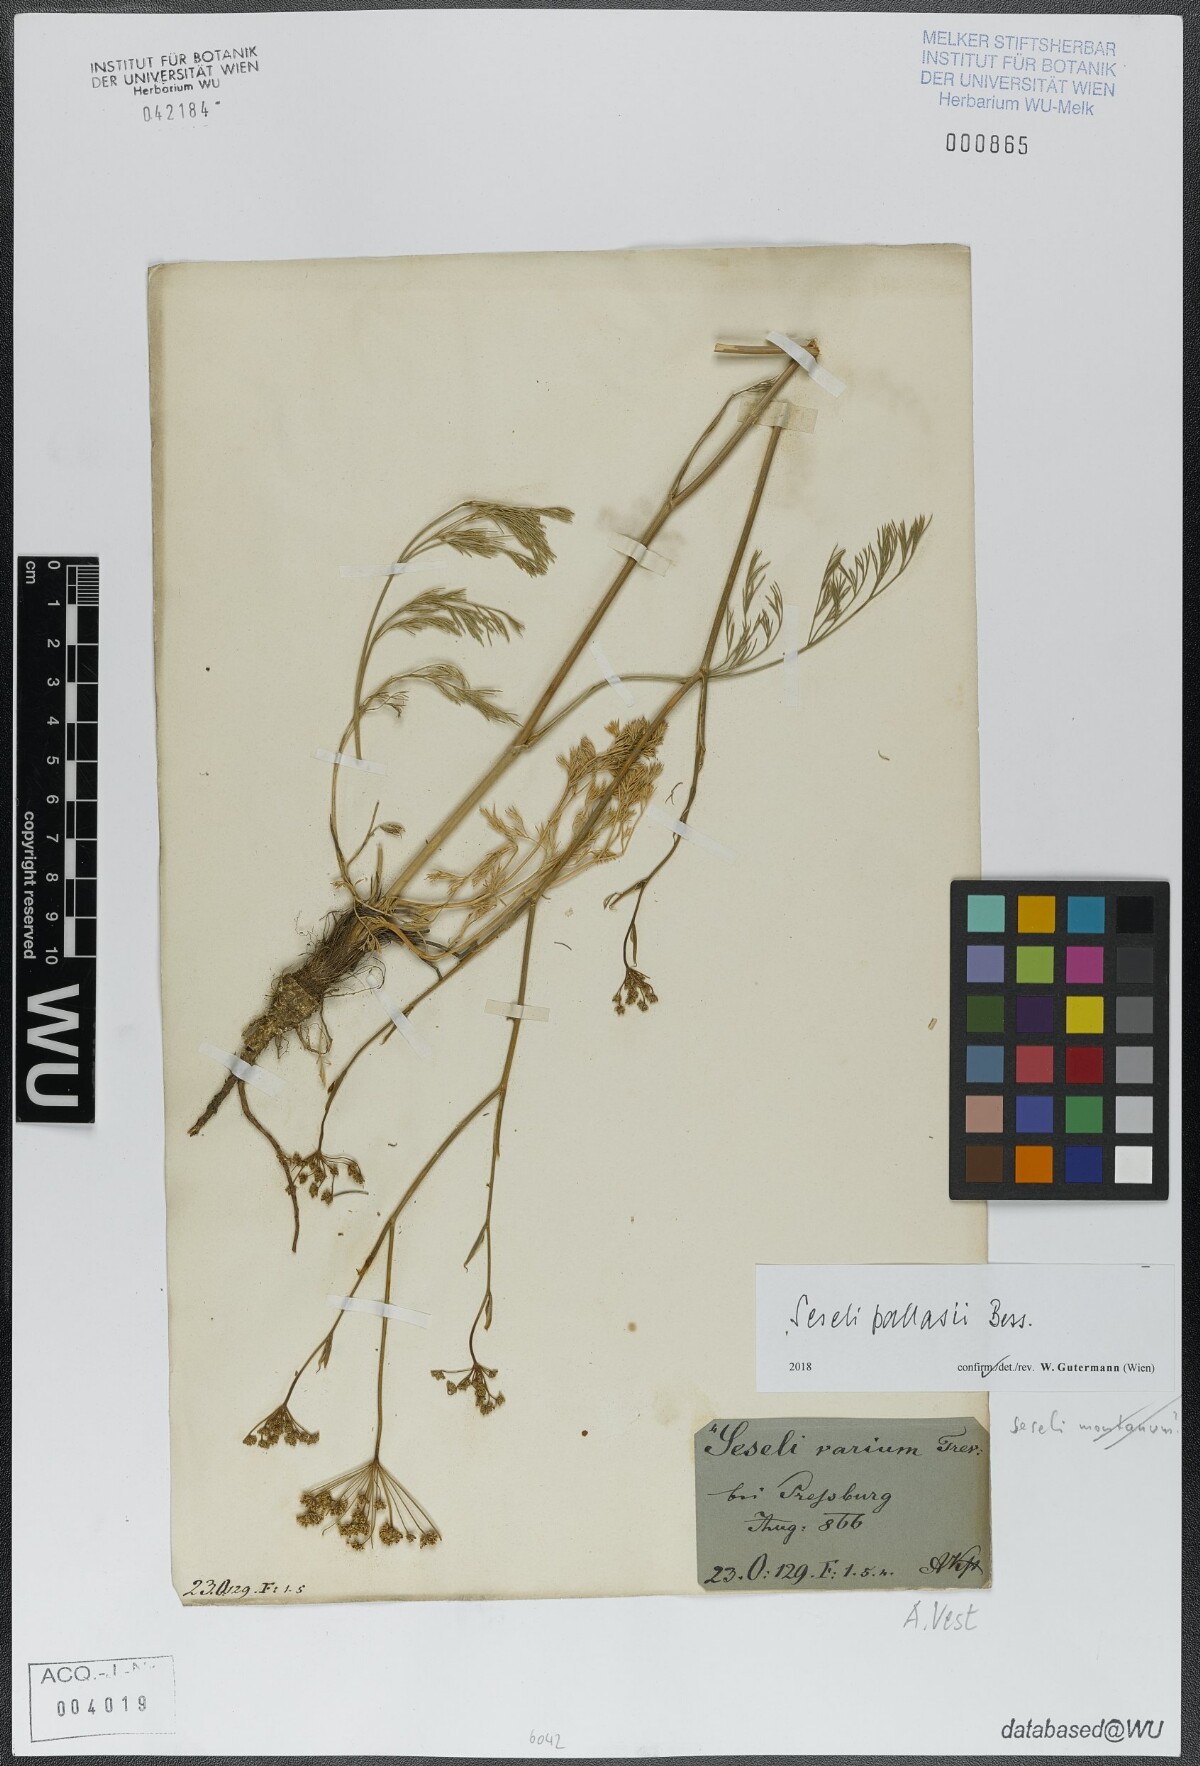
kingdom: Plantae
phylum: Tracheophyta
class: Magnoliopsida
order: Apiales
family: Apiaceae
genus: Seseli
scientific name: Seseli pallasii
